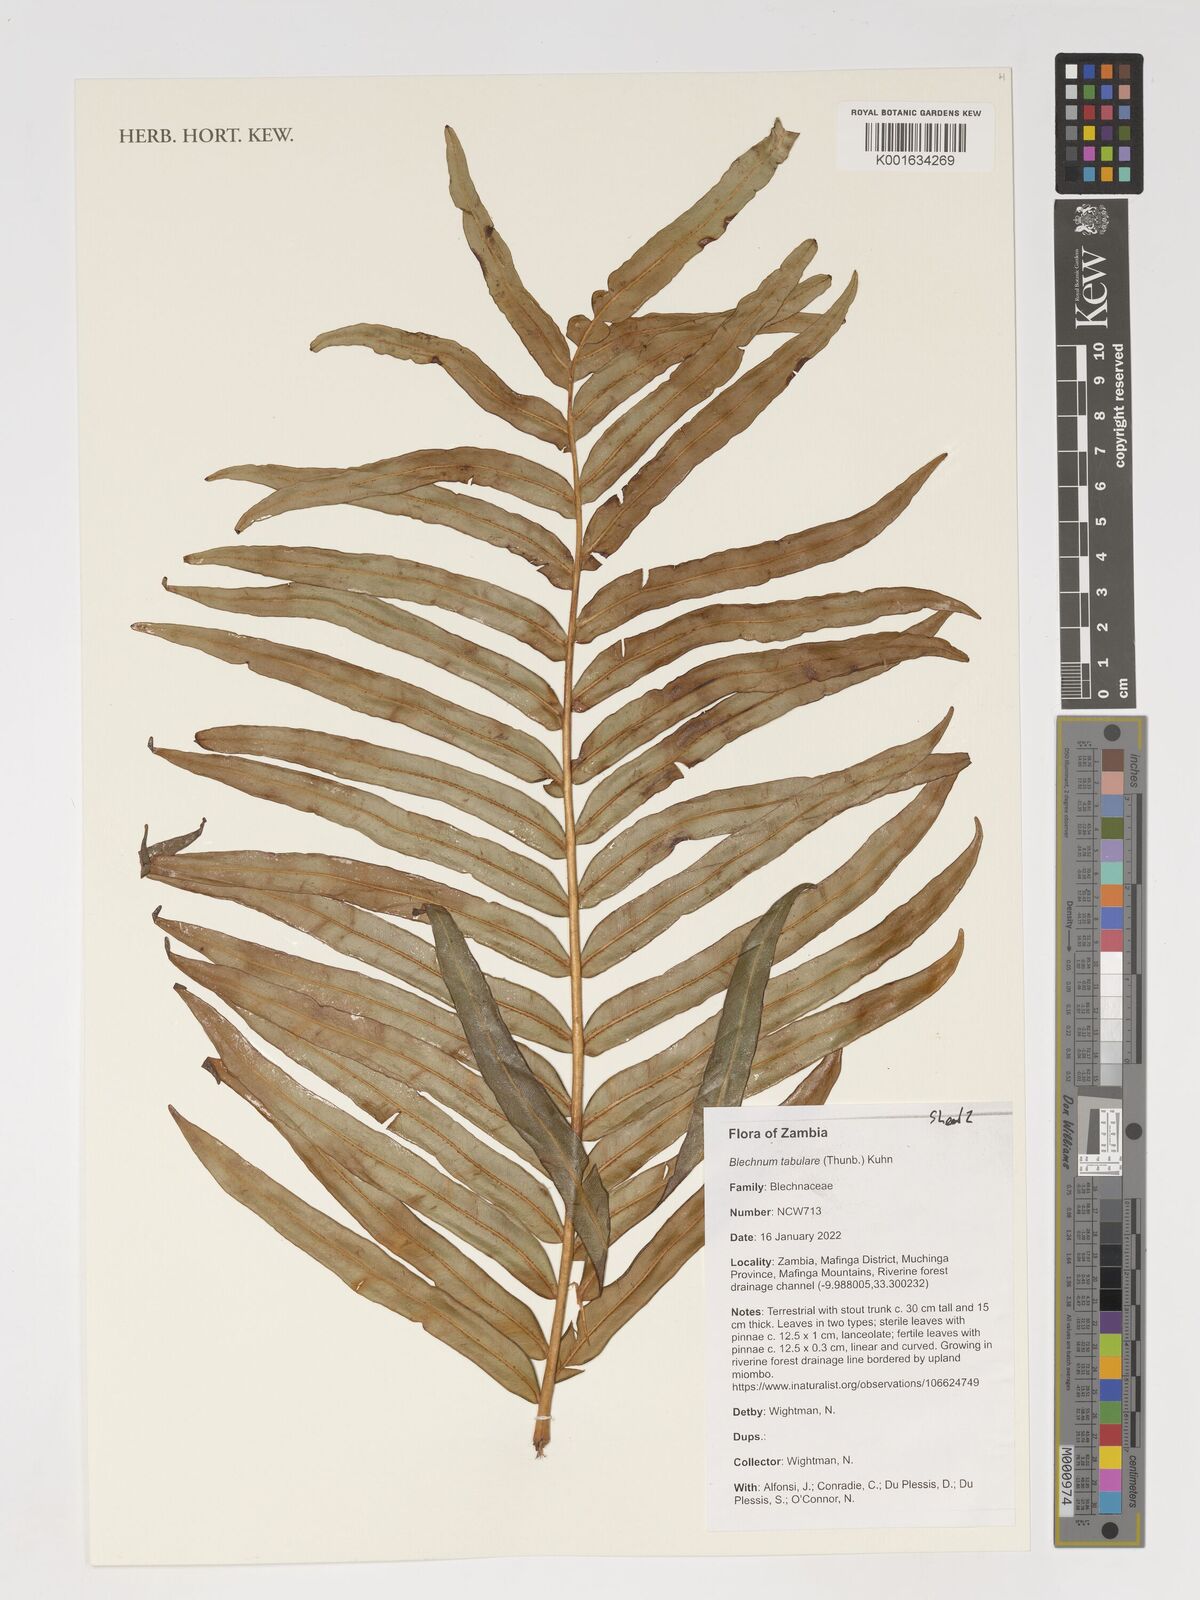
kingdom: Plantae
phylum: Tracheophyta
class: Polypodiopsida
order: Polypodiales
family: Blechnaceae
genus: Lomariocycas
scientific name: Lomariocycas tabularis
